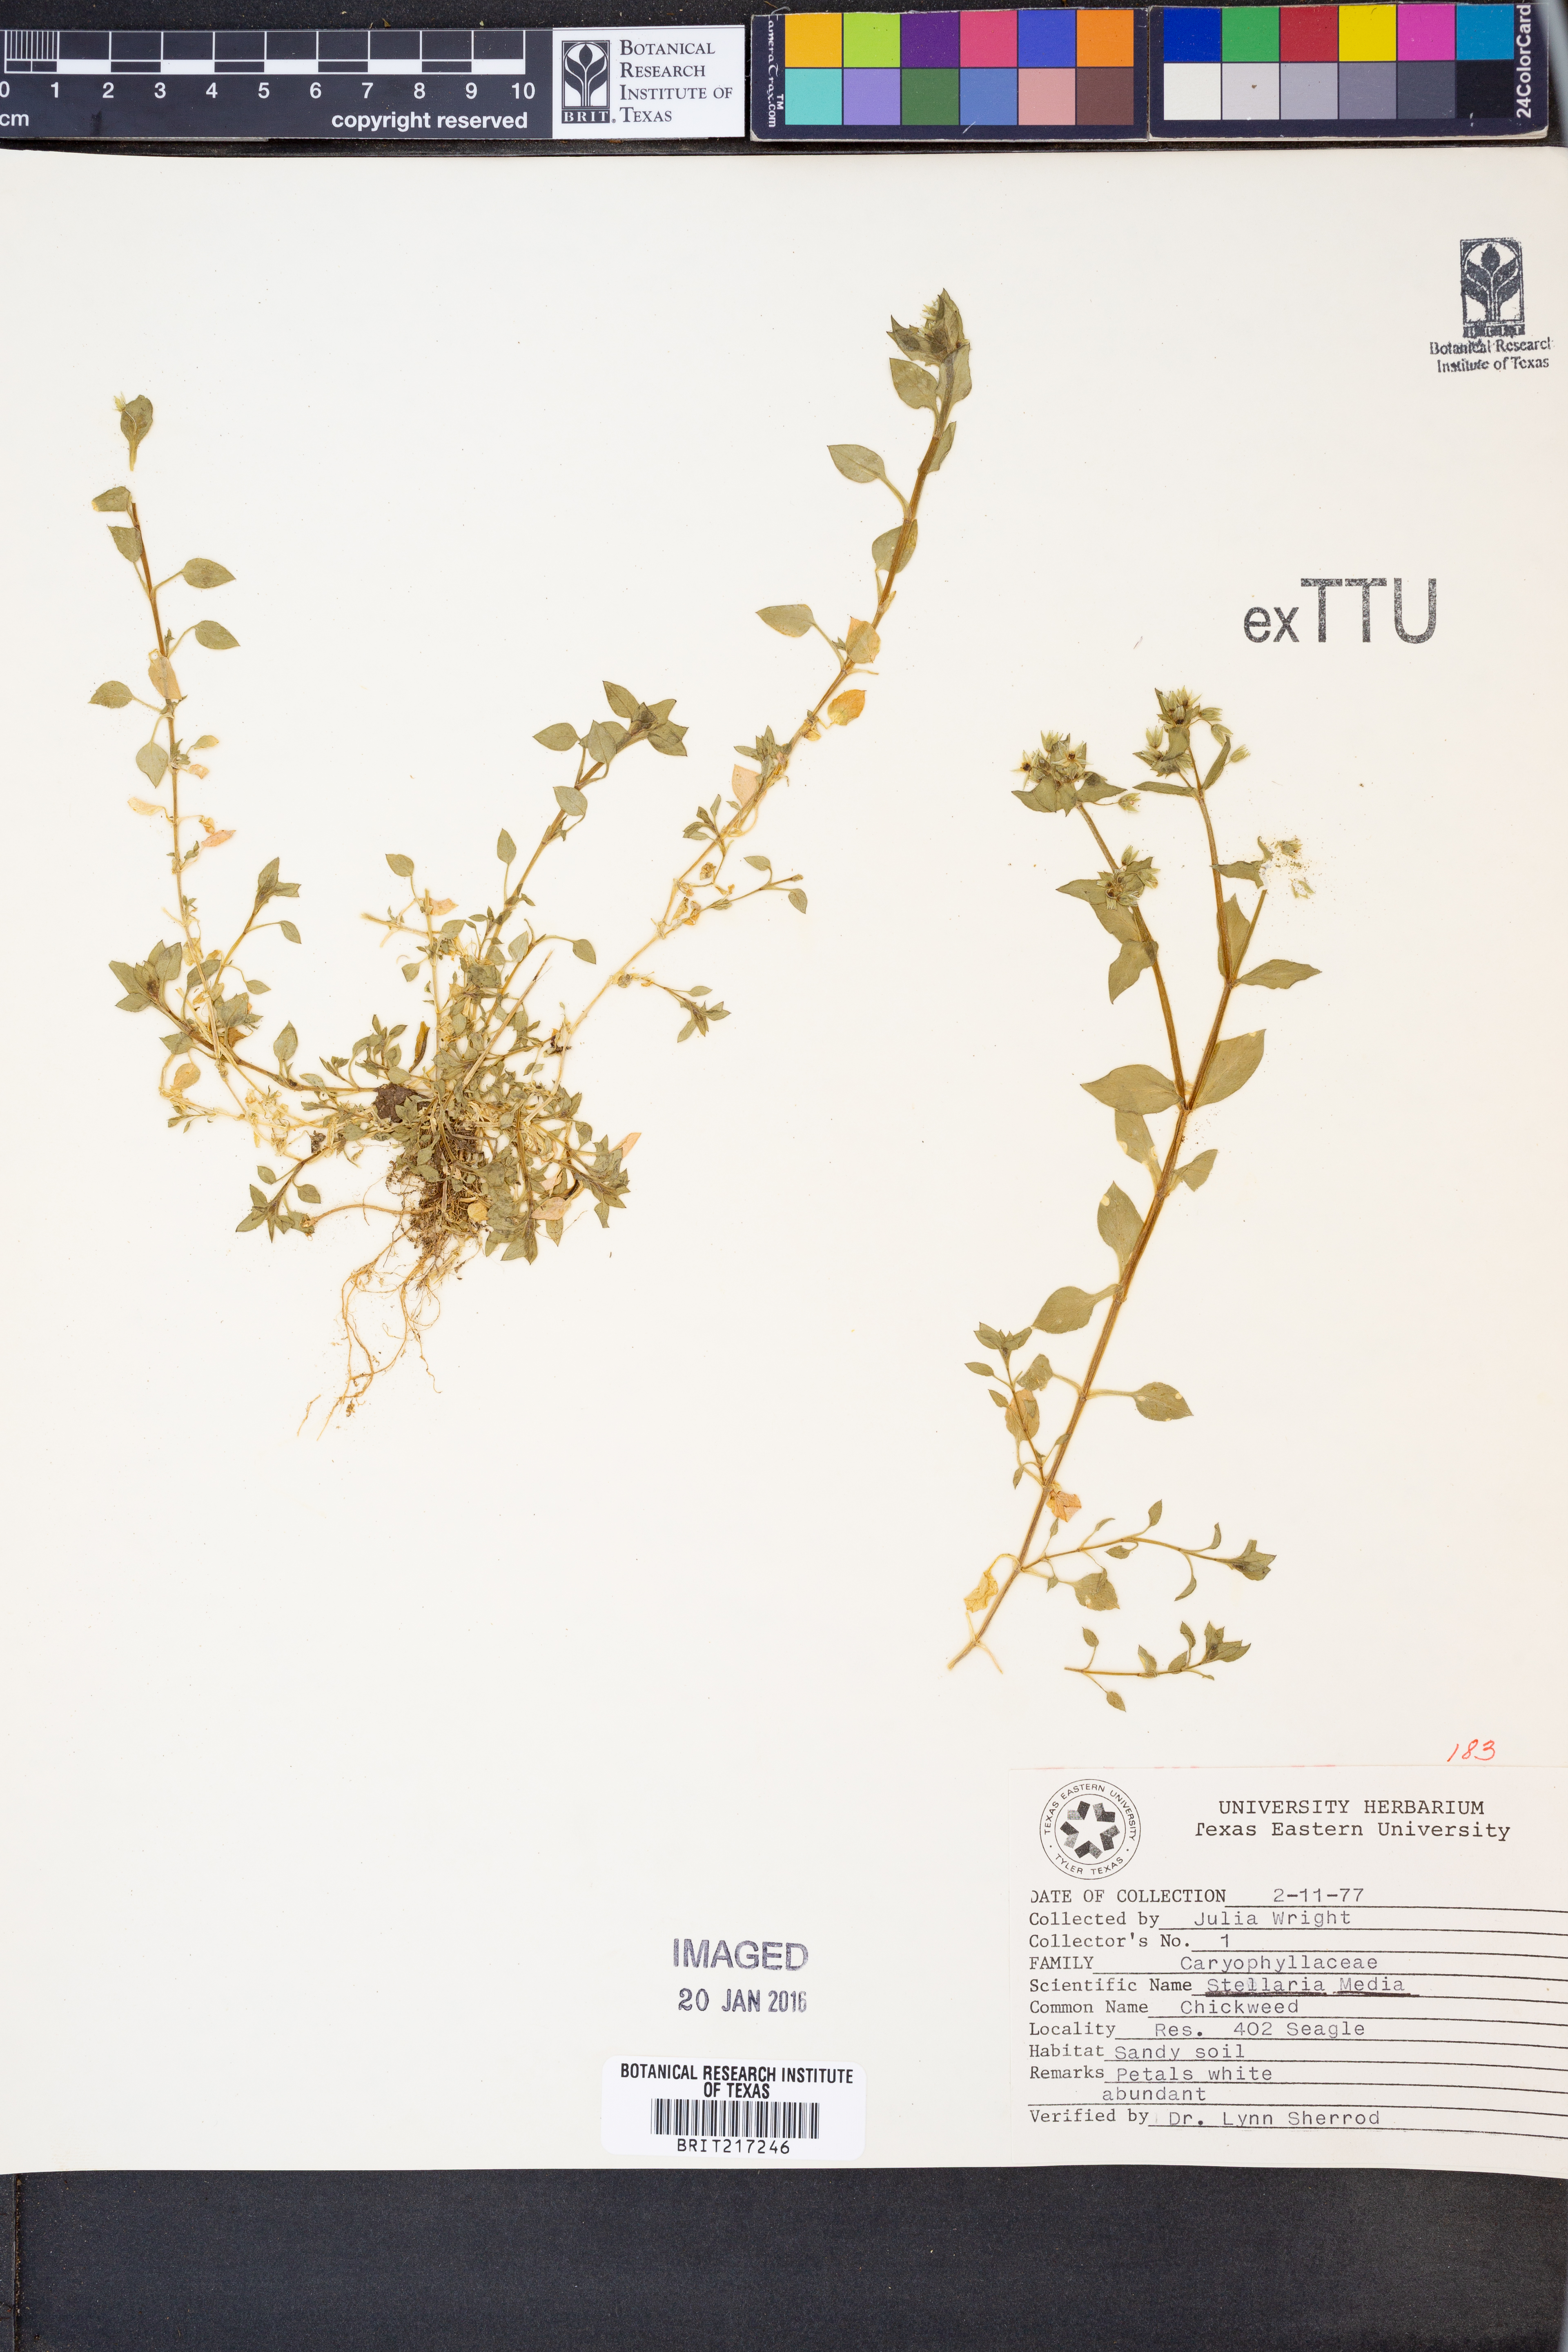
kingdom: Plantae
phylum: Tracheophyta
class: Magnoliopsida
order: Caryophyllales
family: Caryophyllaceae
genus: Stellaria
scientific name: Stellaria media
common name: Common chickweed
